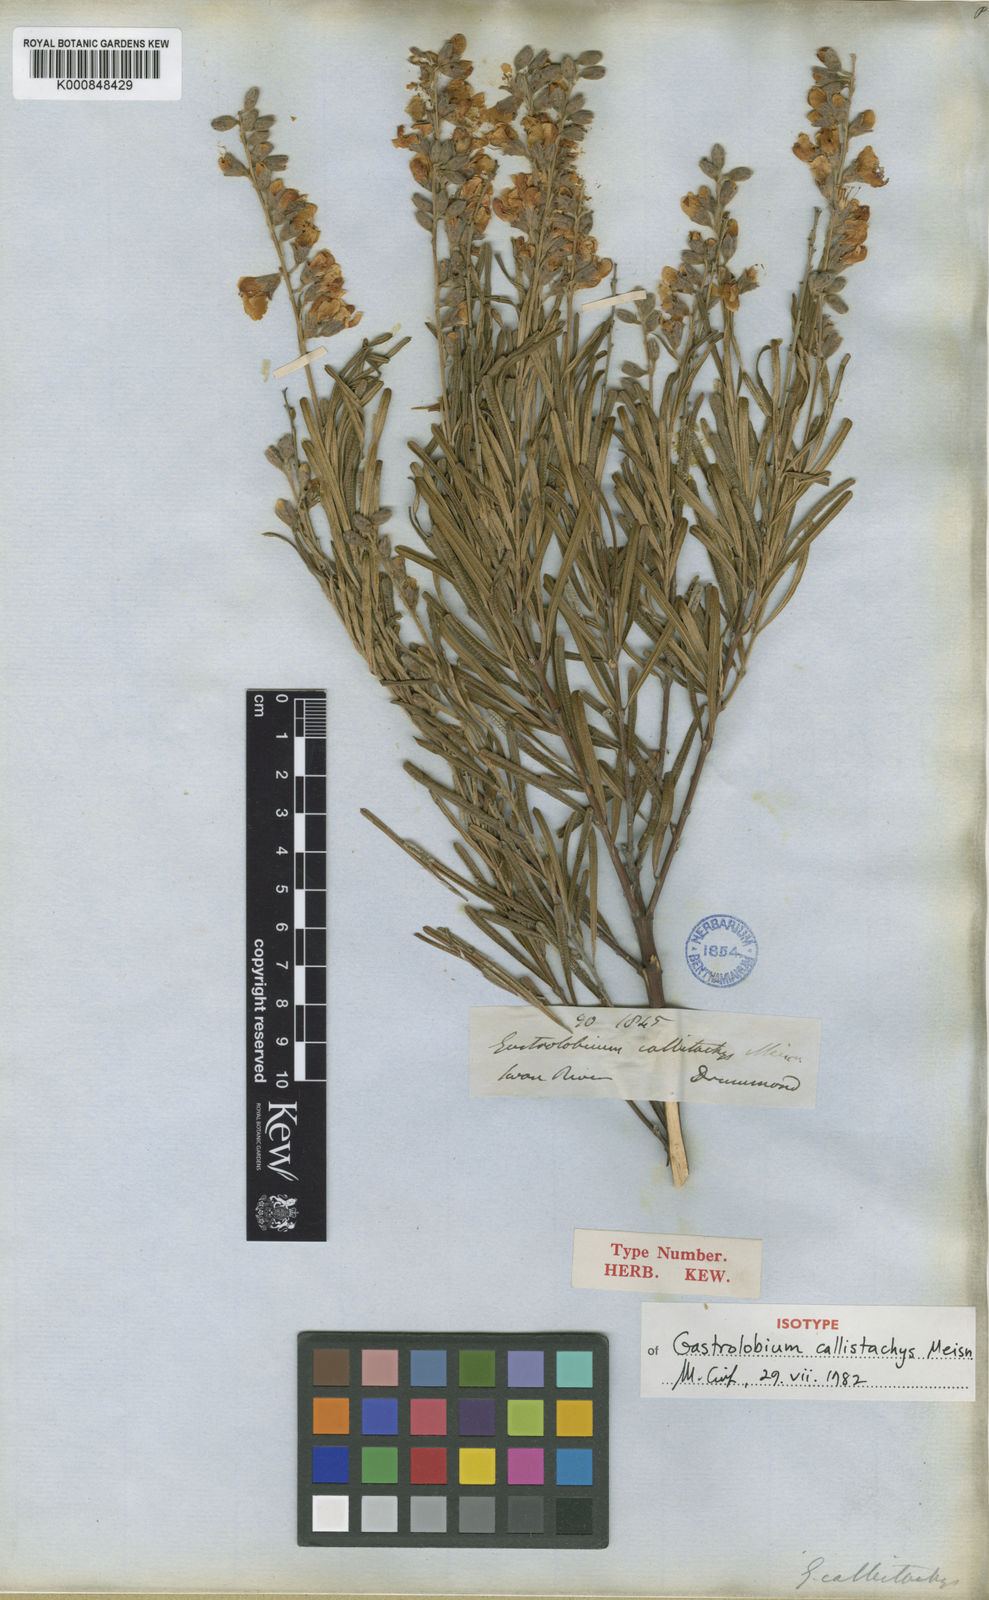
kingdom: Plantae
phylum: Tracheophyta
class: Magnoliopsida
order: Fabales
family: Fabaceae
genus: Gastrolobium
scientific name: Gastrolobium callistachys
